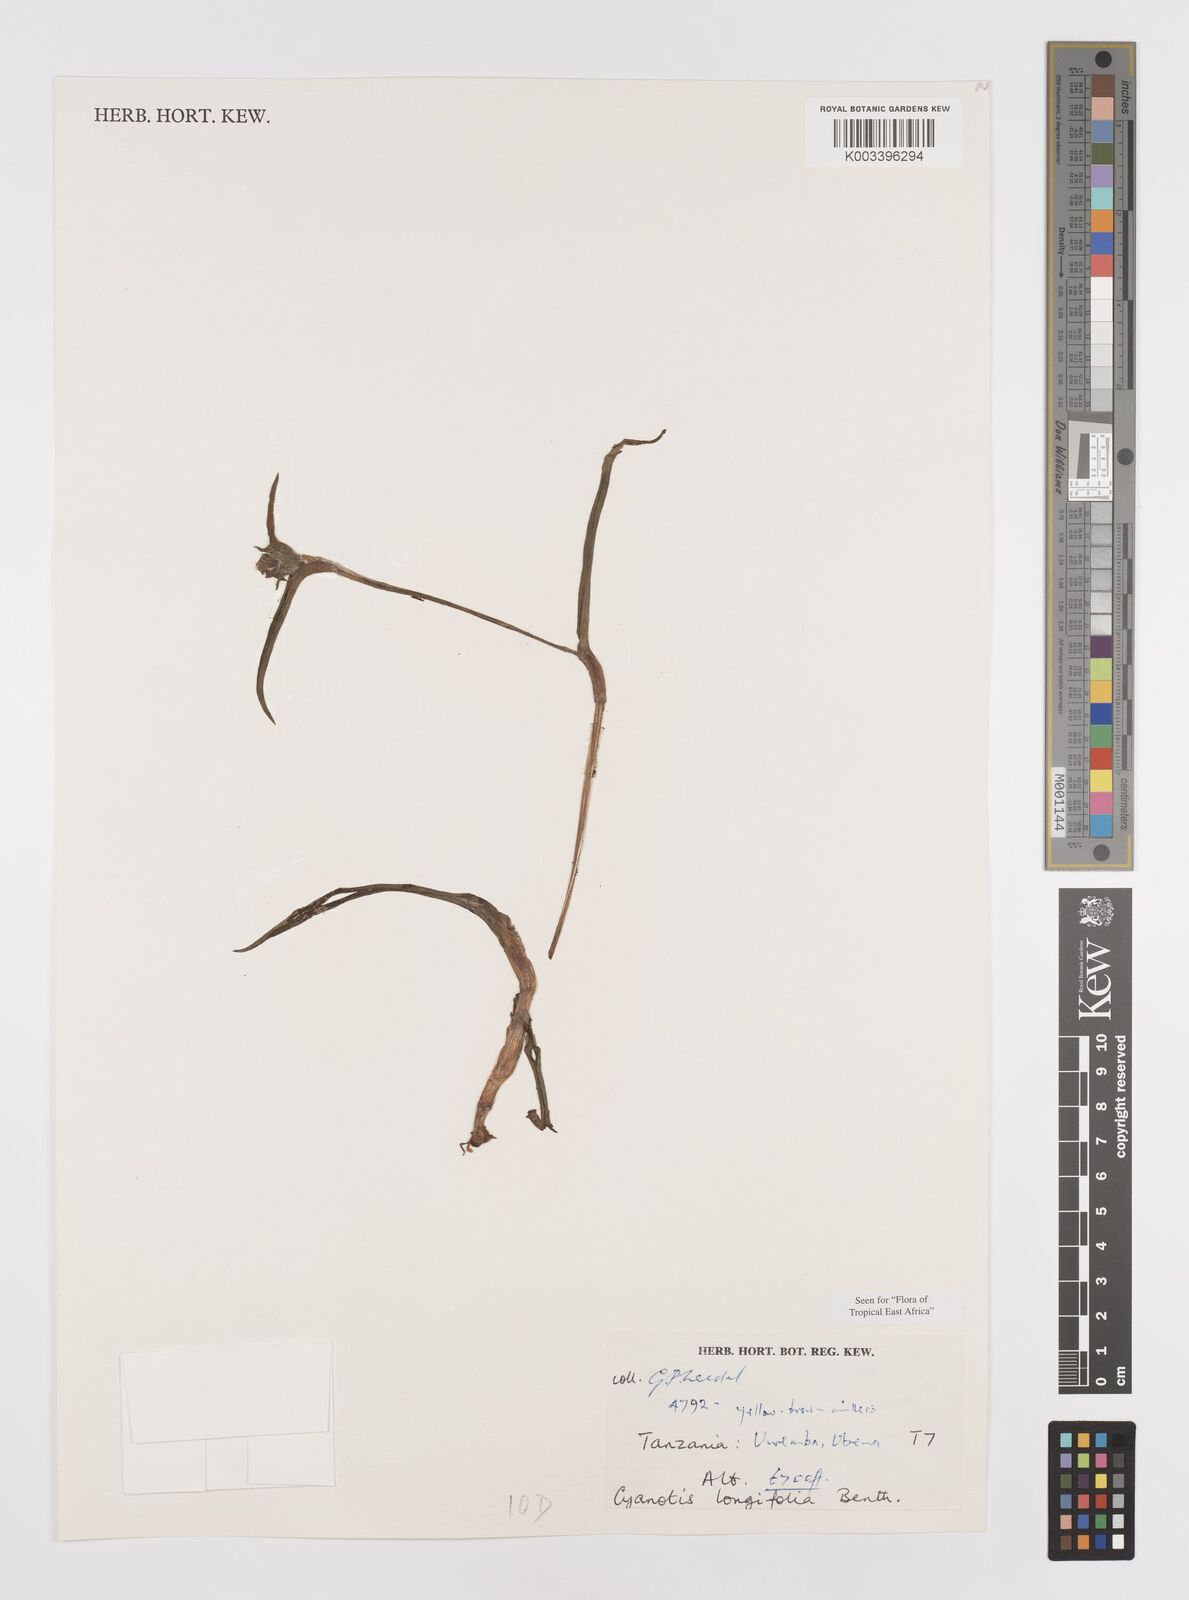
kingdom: Plantae
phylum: Tracheophyta
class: Liliopsida
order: Commelinales
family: Commelinaceae
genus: Cyanotis
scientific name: Cyanotis longifolia
